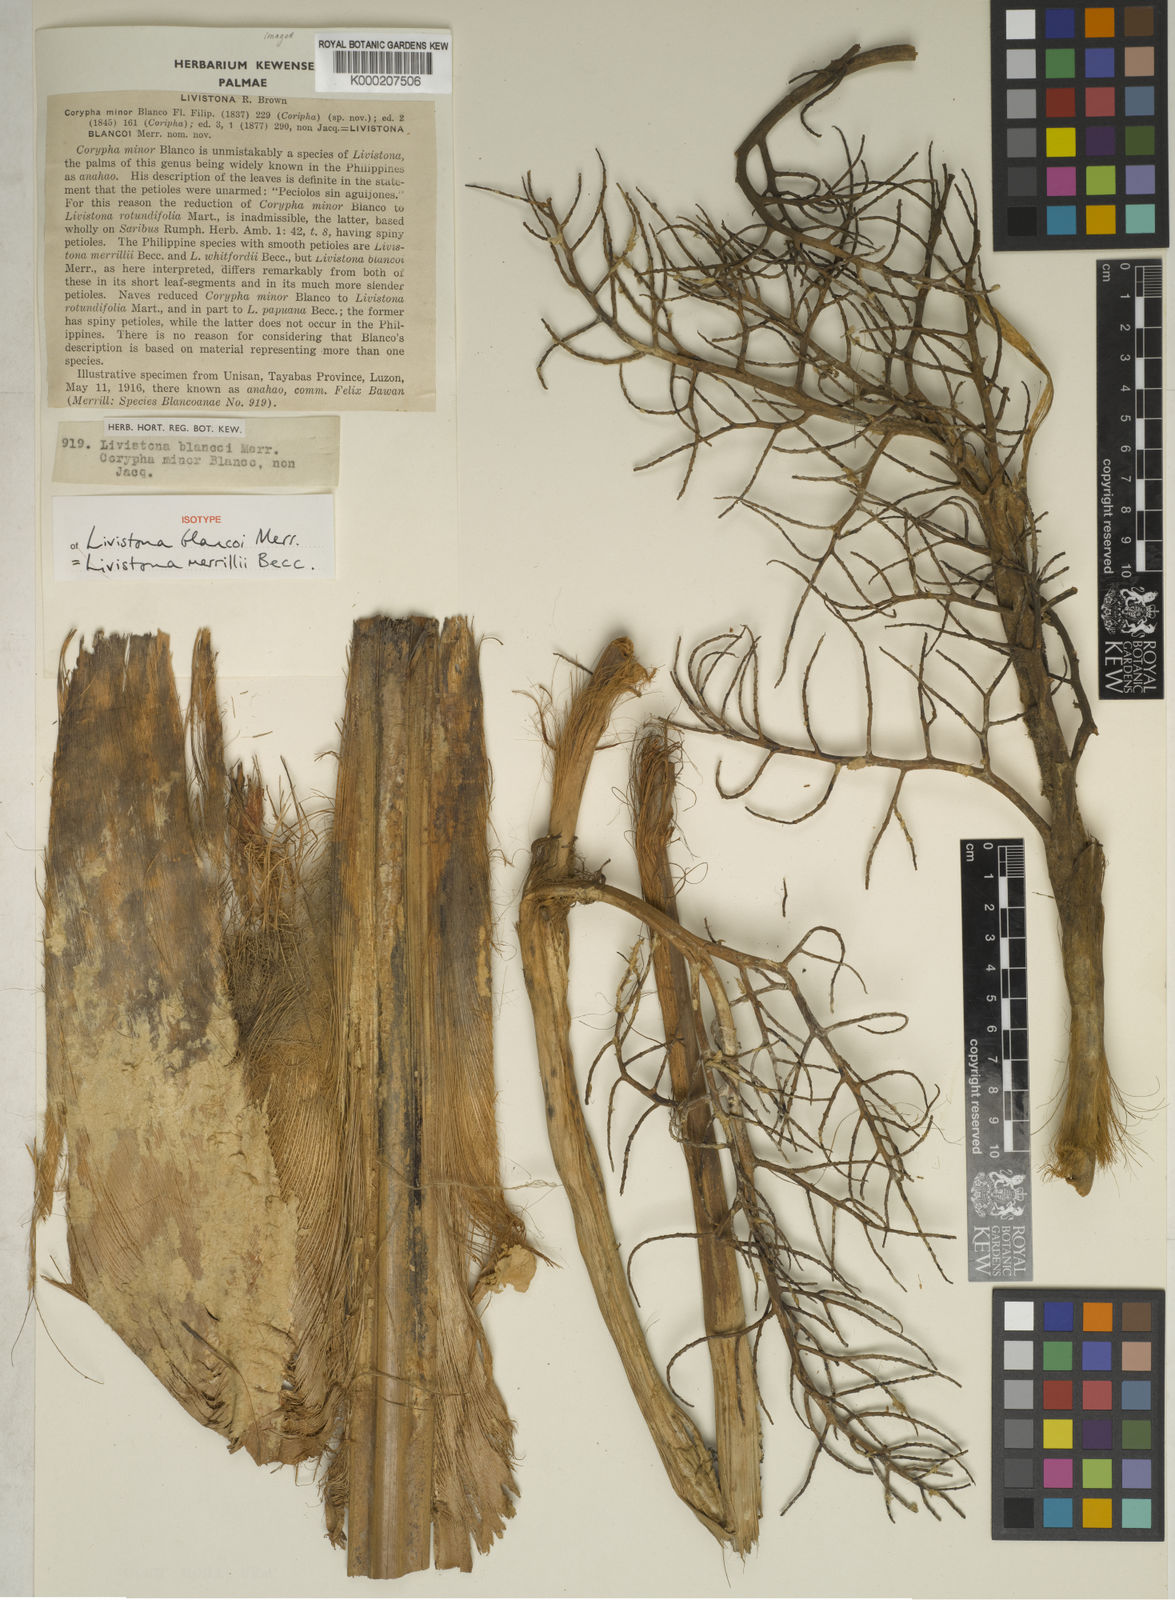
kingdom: Plantae
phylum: Tracheophyta
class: Liliopsida
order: Arecales
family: Arecaceae
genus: Saribus
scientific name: Saribus merrillii
